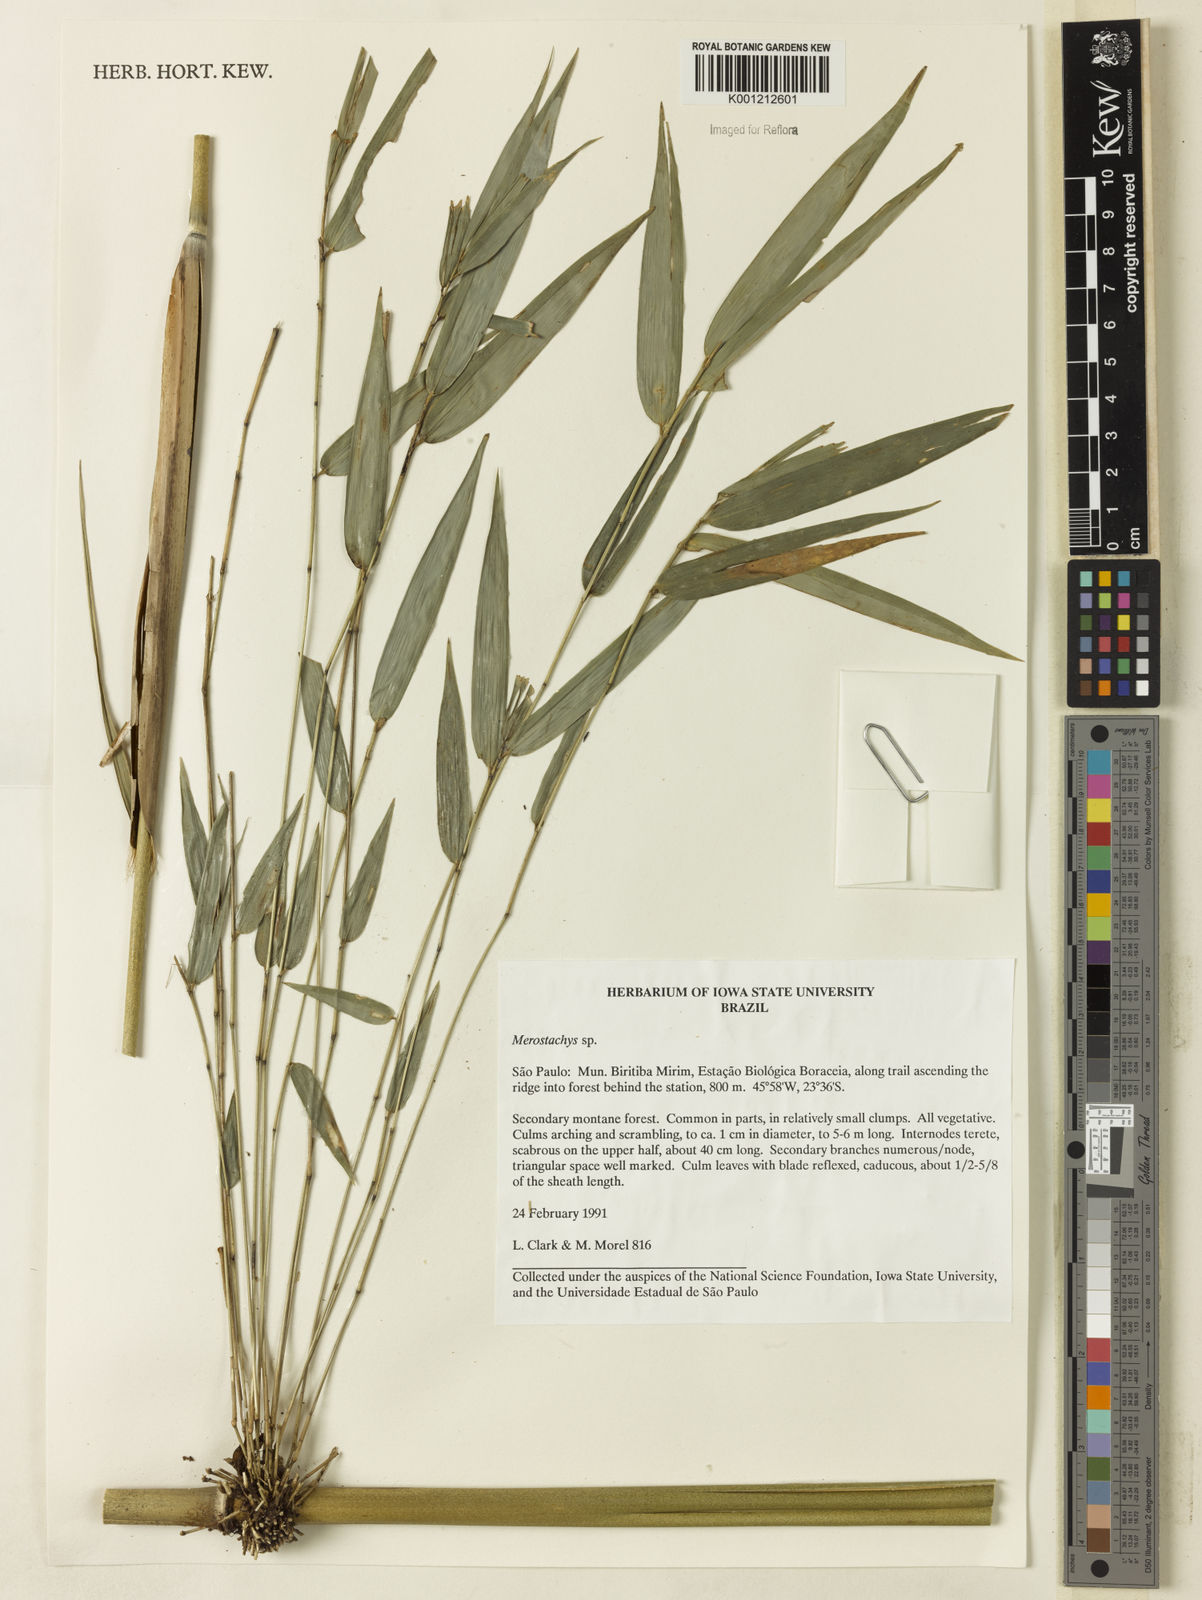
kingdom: Plantae
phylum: Tracheophyta
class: Liliopsida
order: Poales
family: Poaceae
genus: Merostachys
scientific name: Merostachys
